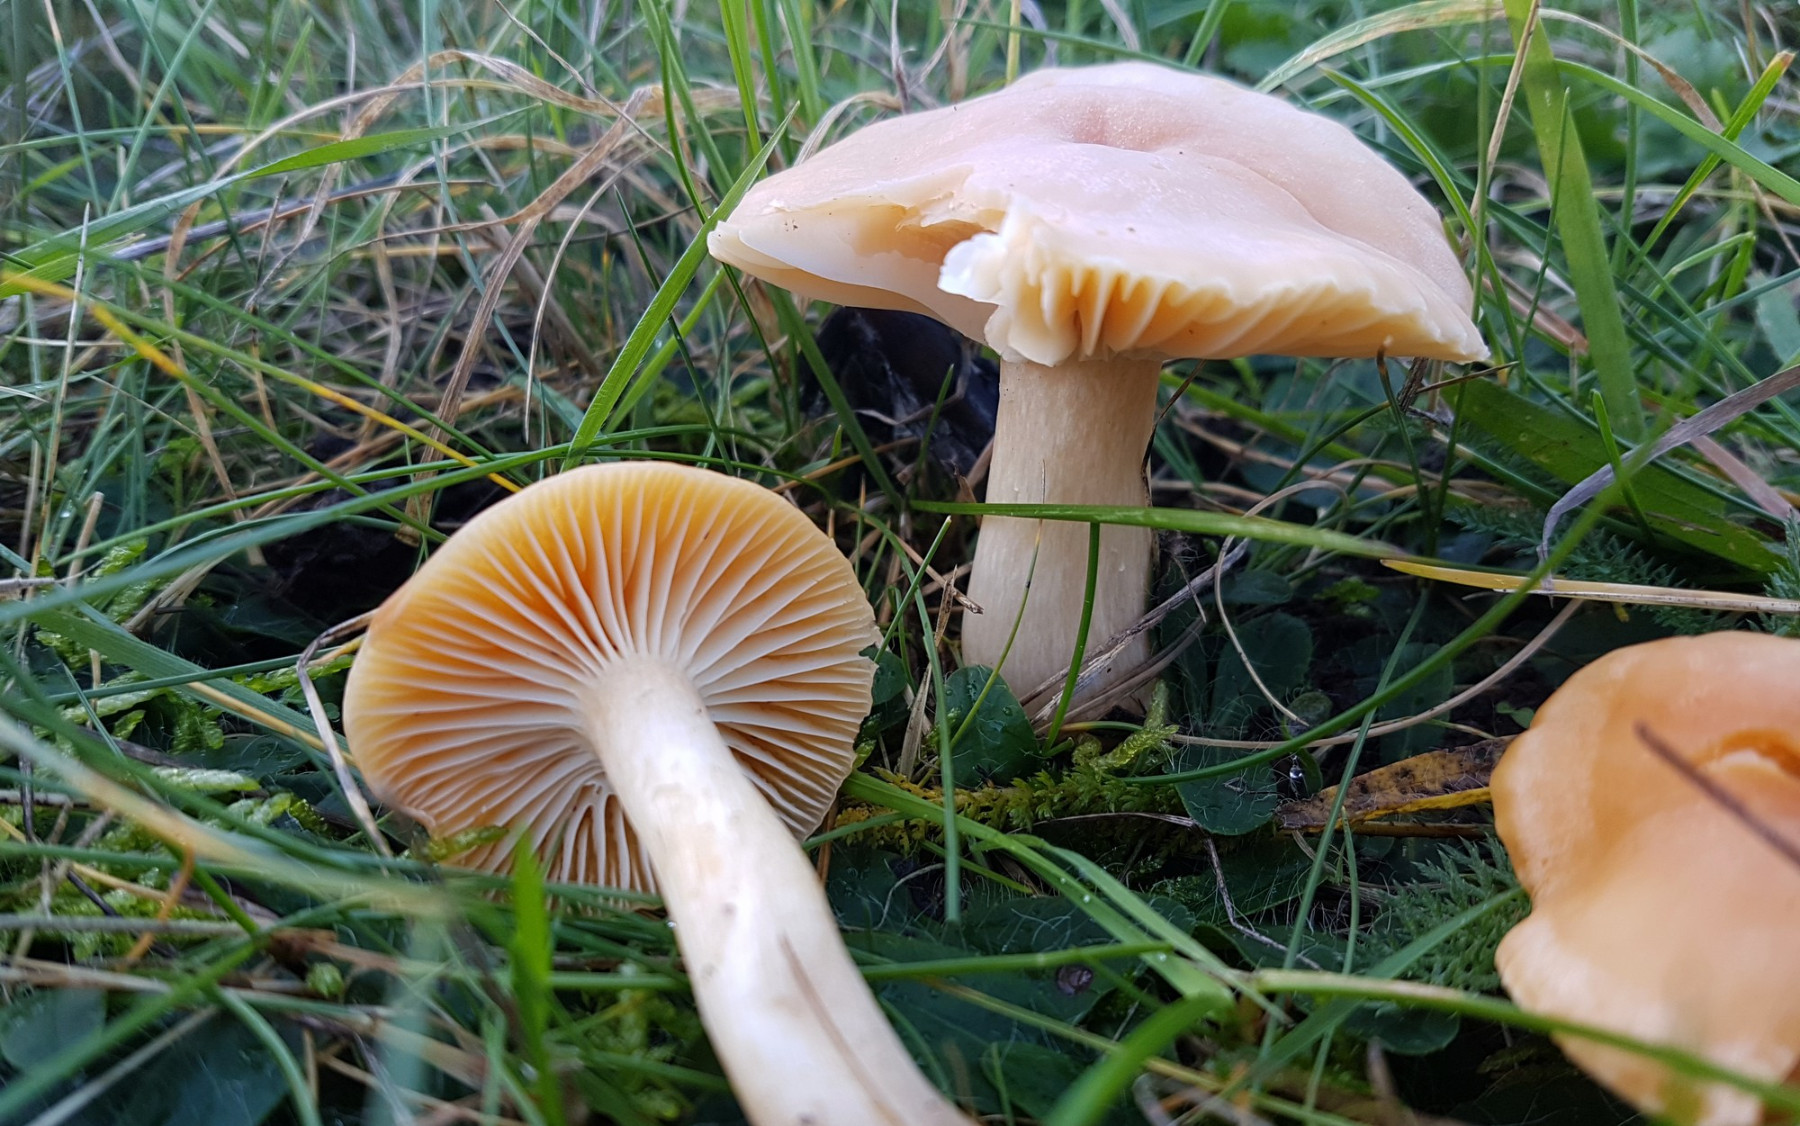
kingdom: Fungi
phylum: Basidiomycota
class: Agaricomycetes
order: Agaricales
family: Hygrophoraceae
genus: Cuphophyllus
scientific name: Cuphophyllus pratensis
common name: eng-vokshat
